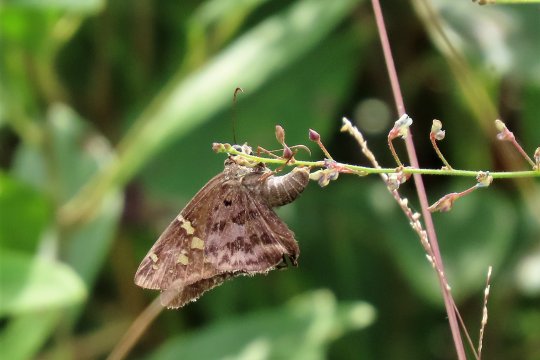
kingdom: Animalia
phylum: Arthropoda
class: Insecta
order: Lepidoptera
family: Hesperiidae
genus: Urbanus
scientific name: Urbanus dorantes
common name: Dorantes Longtail
